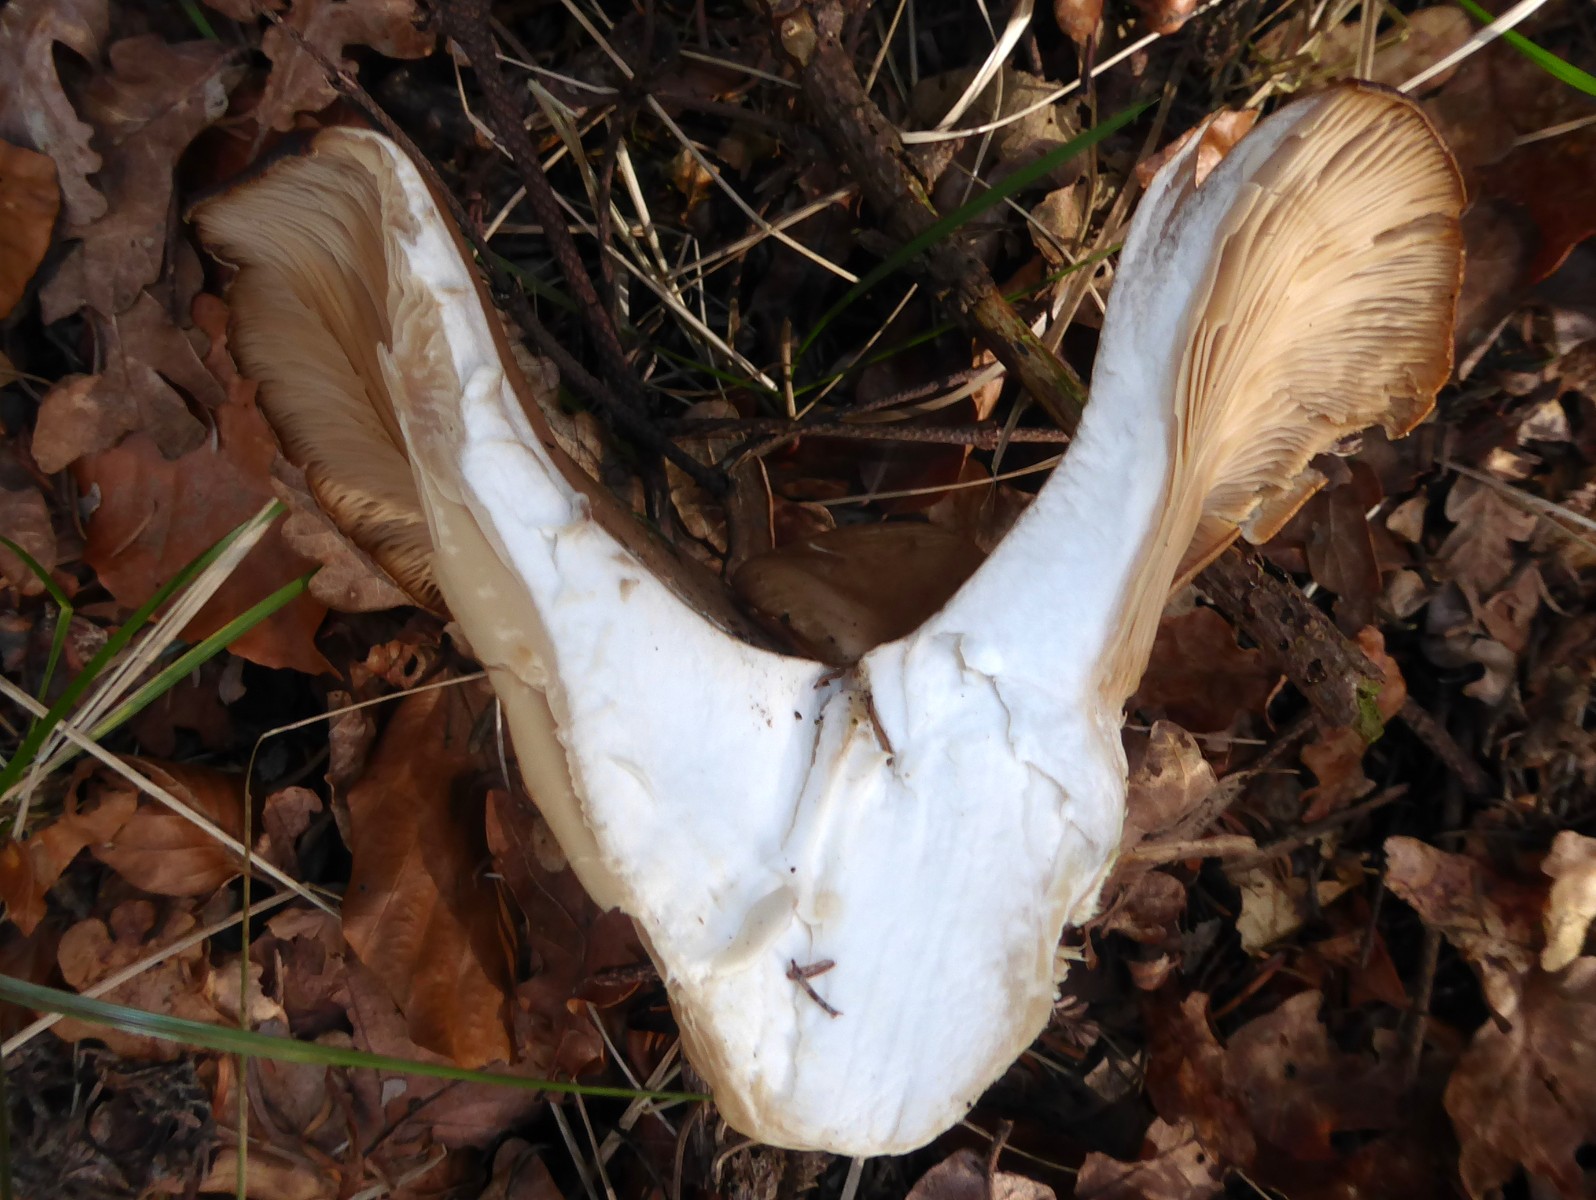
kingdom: Fungi
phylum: Basidiomycota
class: Agaricomycetes
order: Agaricales
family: Pleurotaceae
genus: Pleurotus
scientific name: Pleurotus ostreatus
